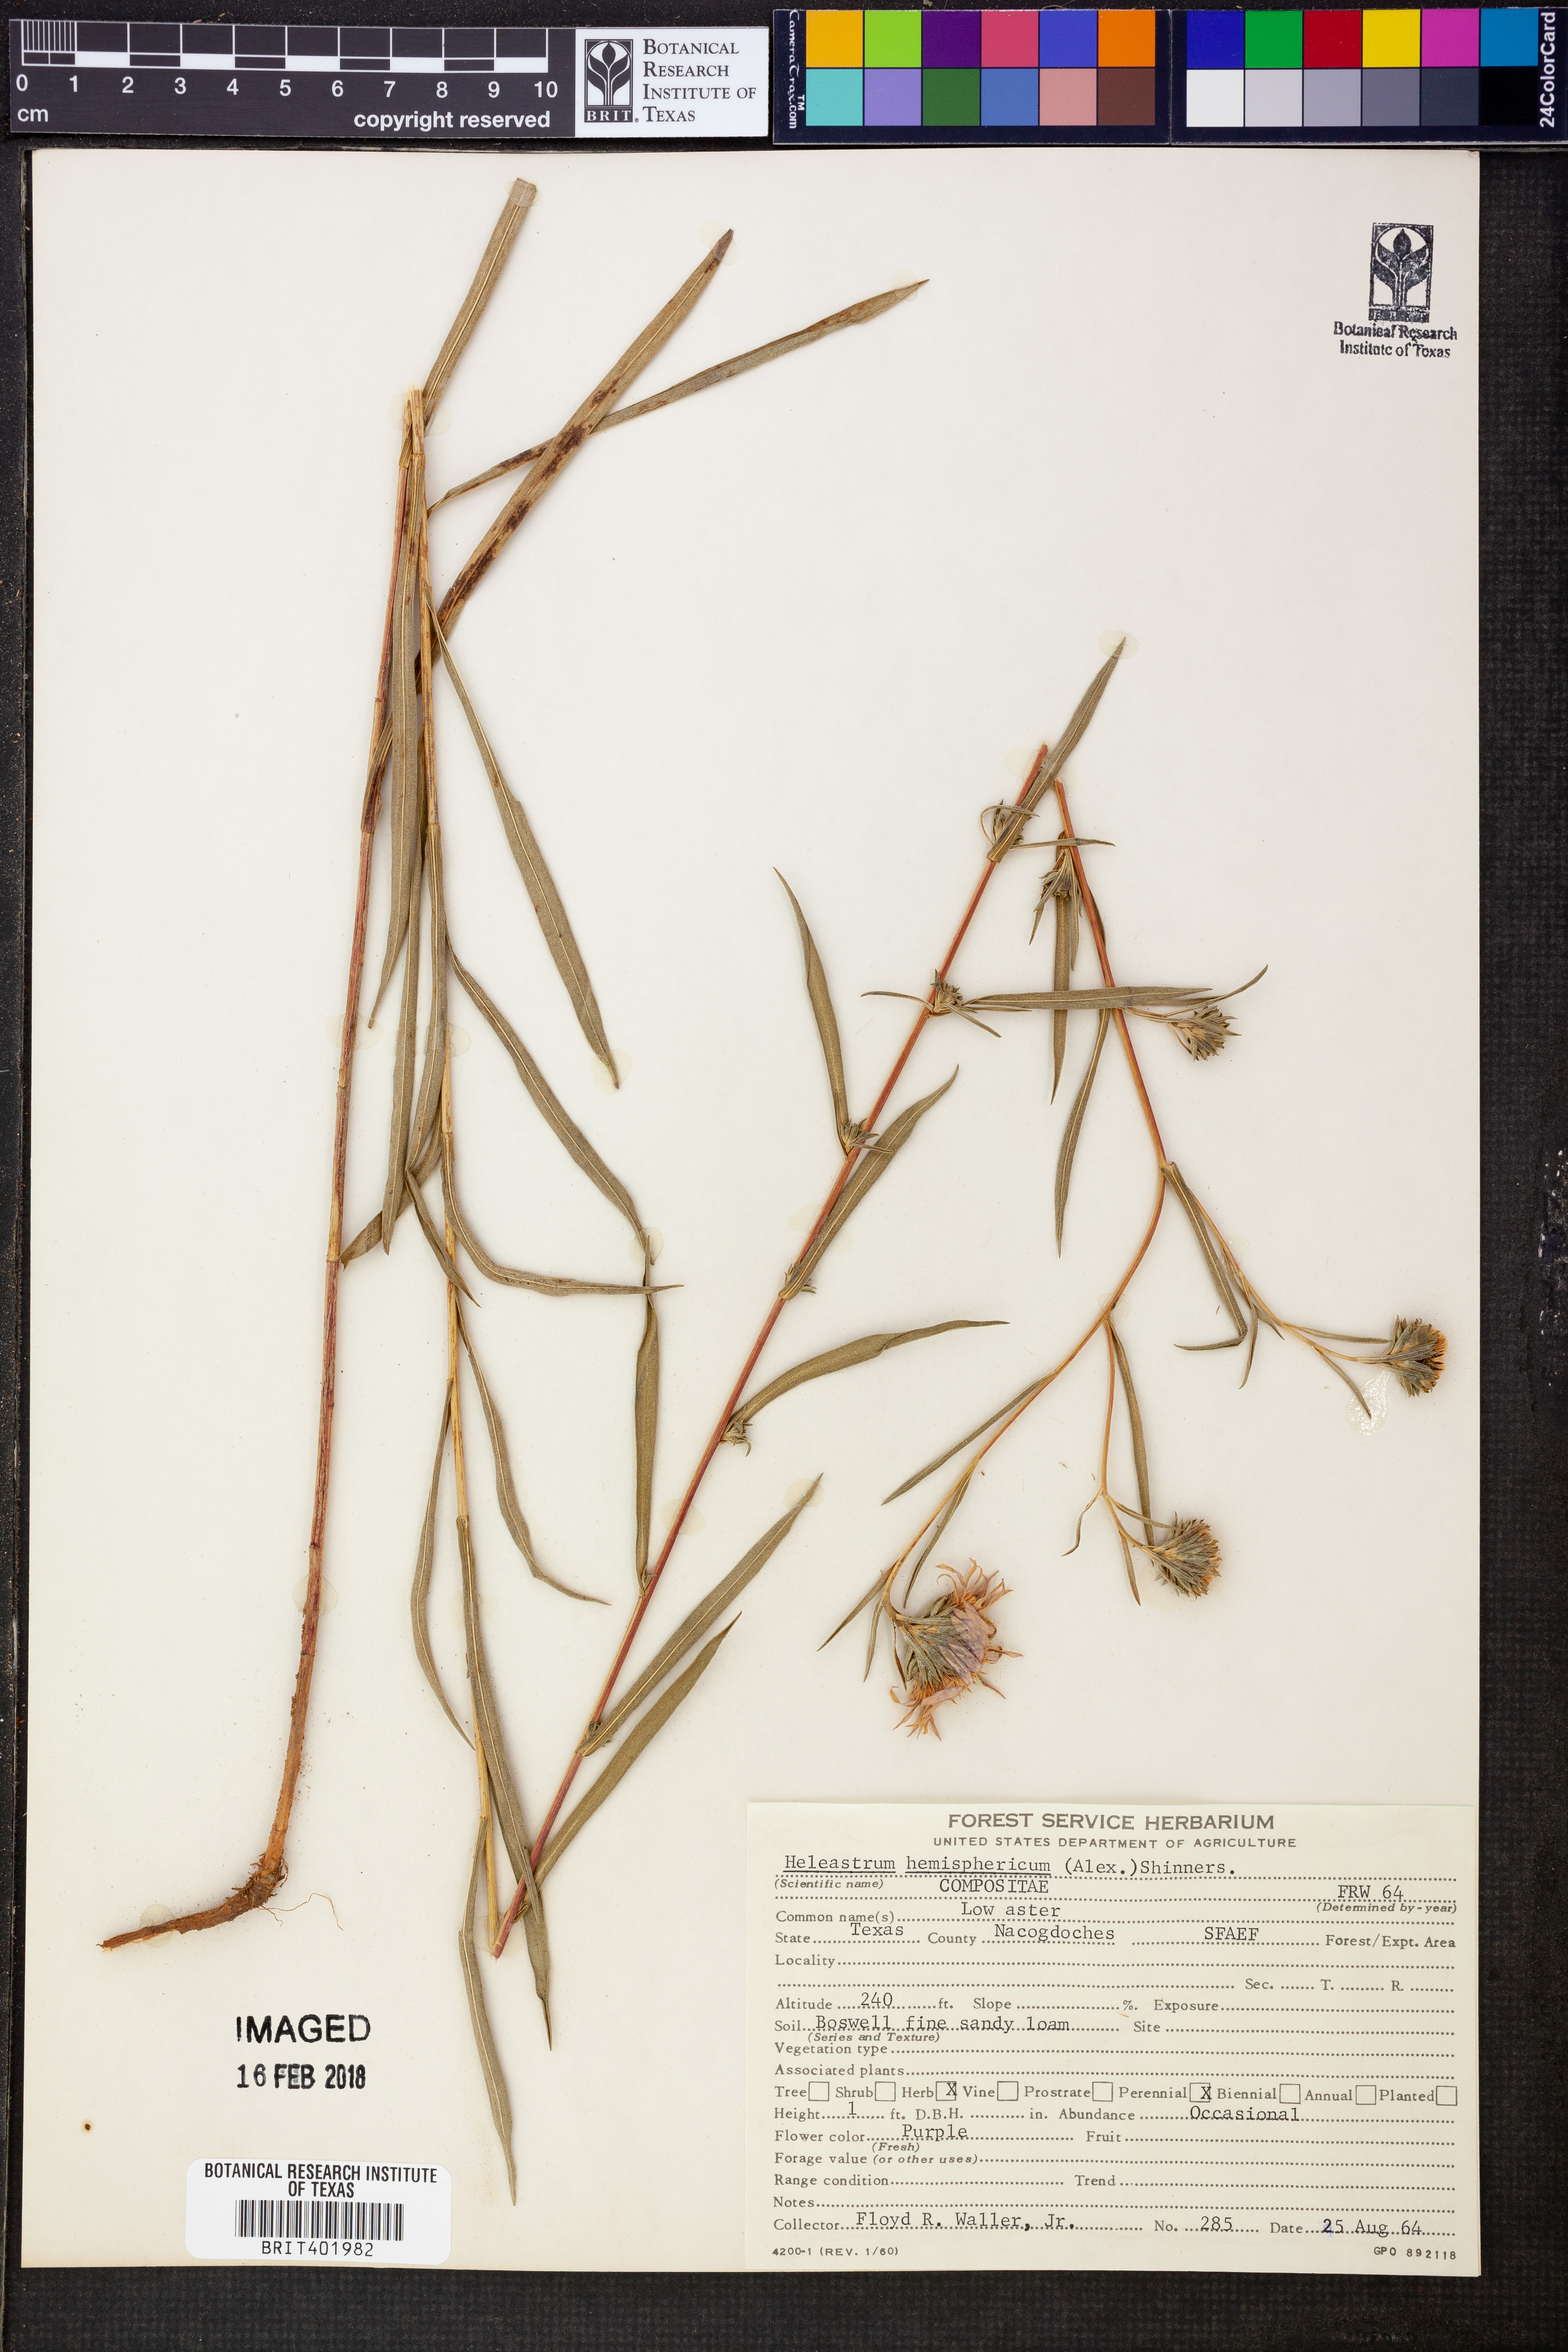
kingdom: Plantae
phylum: Tracheophyta
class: Magnoliopsida
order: Asterales
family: Asteraceae
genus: Eurybia
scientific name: Eurybia hemispherica
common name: Showy aster
